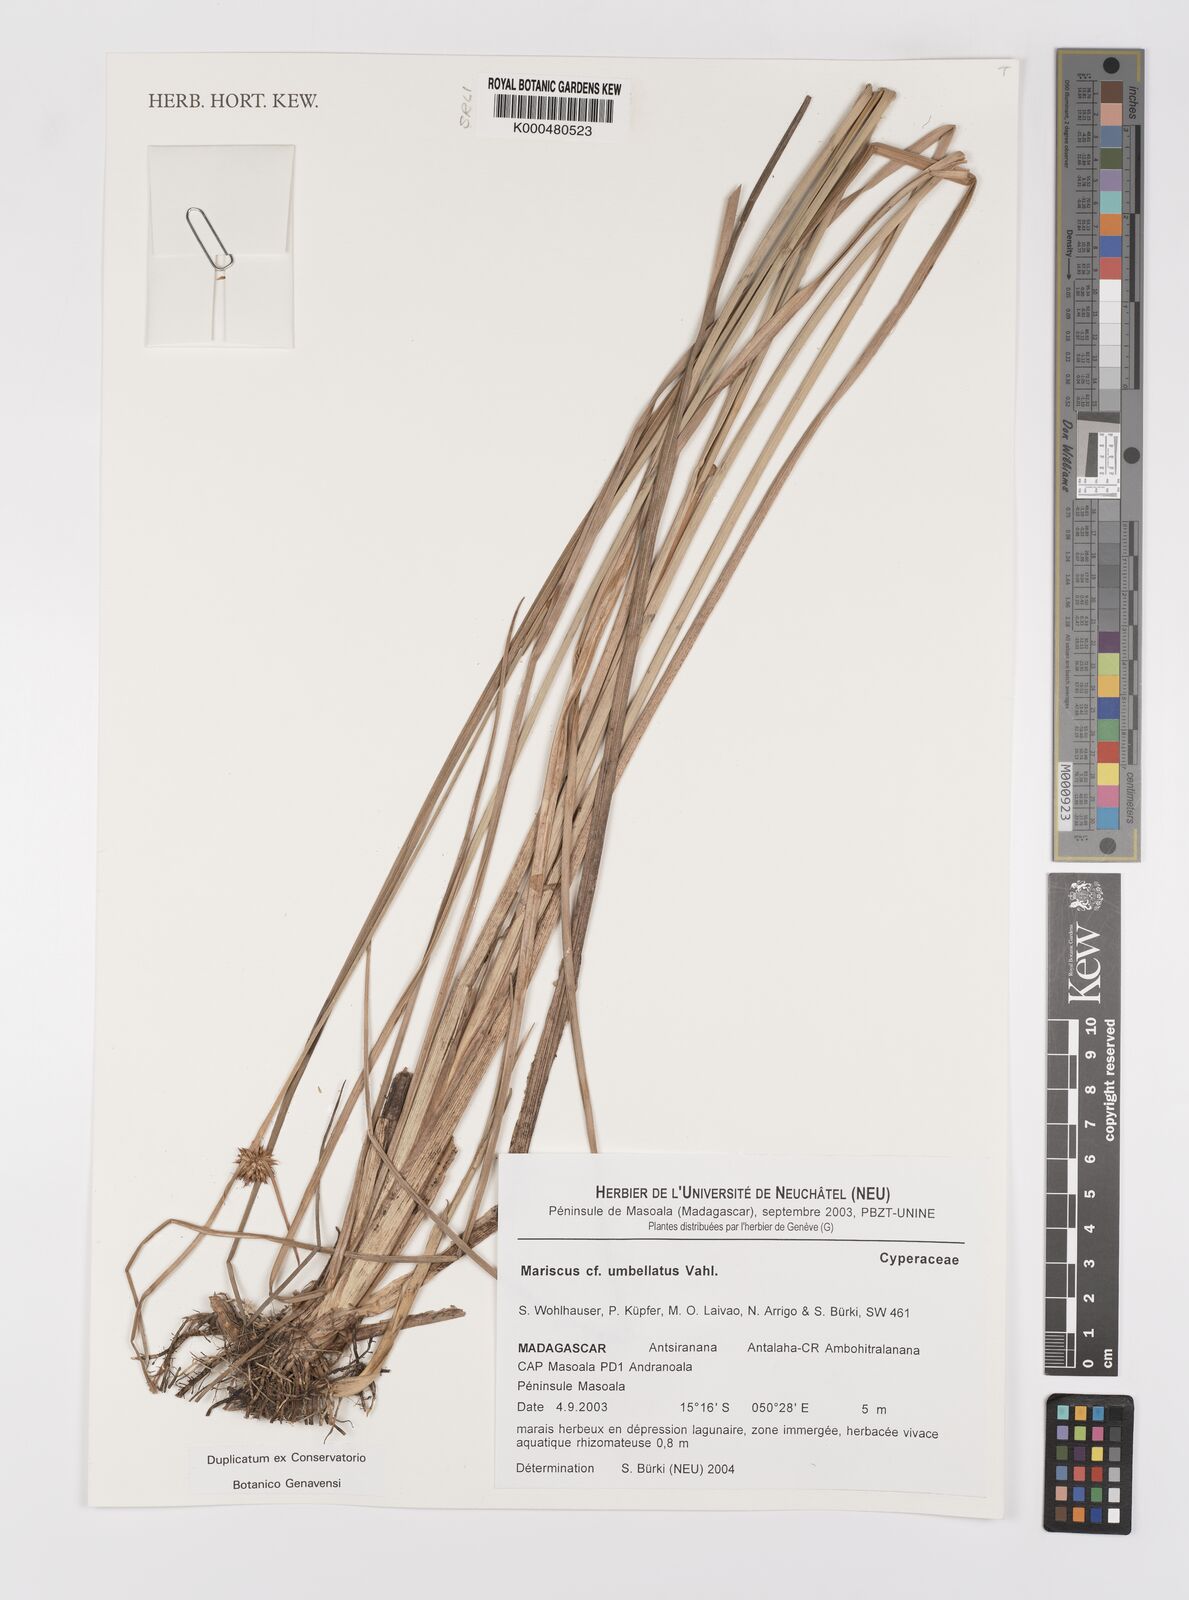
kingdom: Plantae
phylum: Tracheophyta
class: Liliopsida
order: Poales
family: Cyperaceae
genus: Mariscus
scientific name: Mariscus
